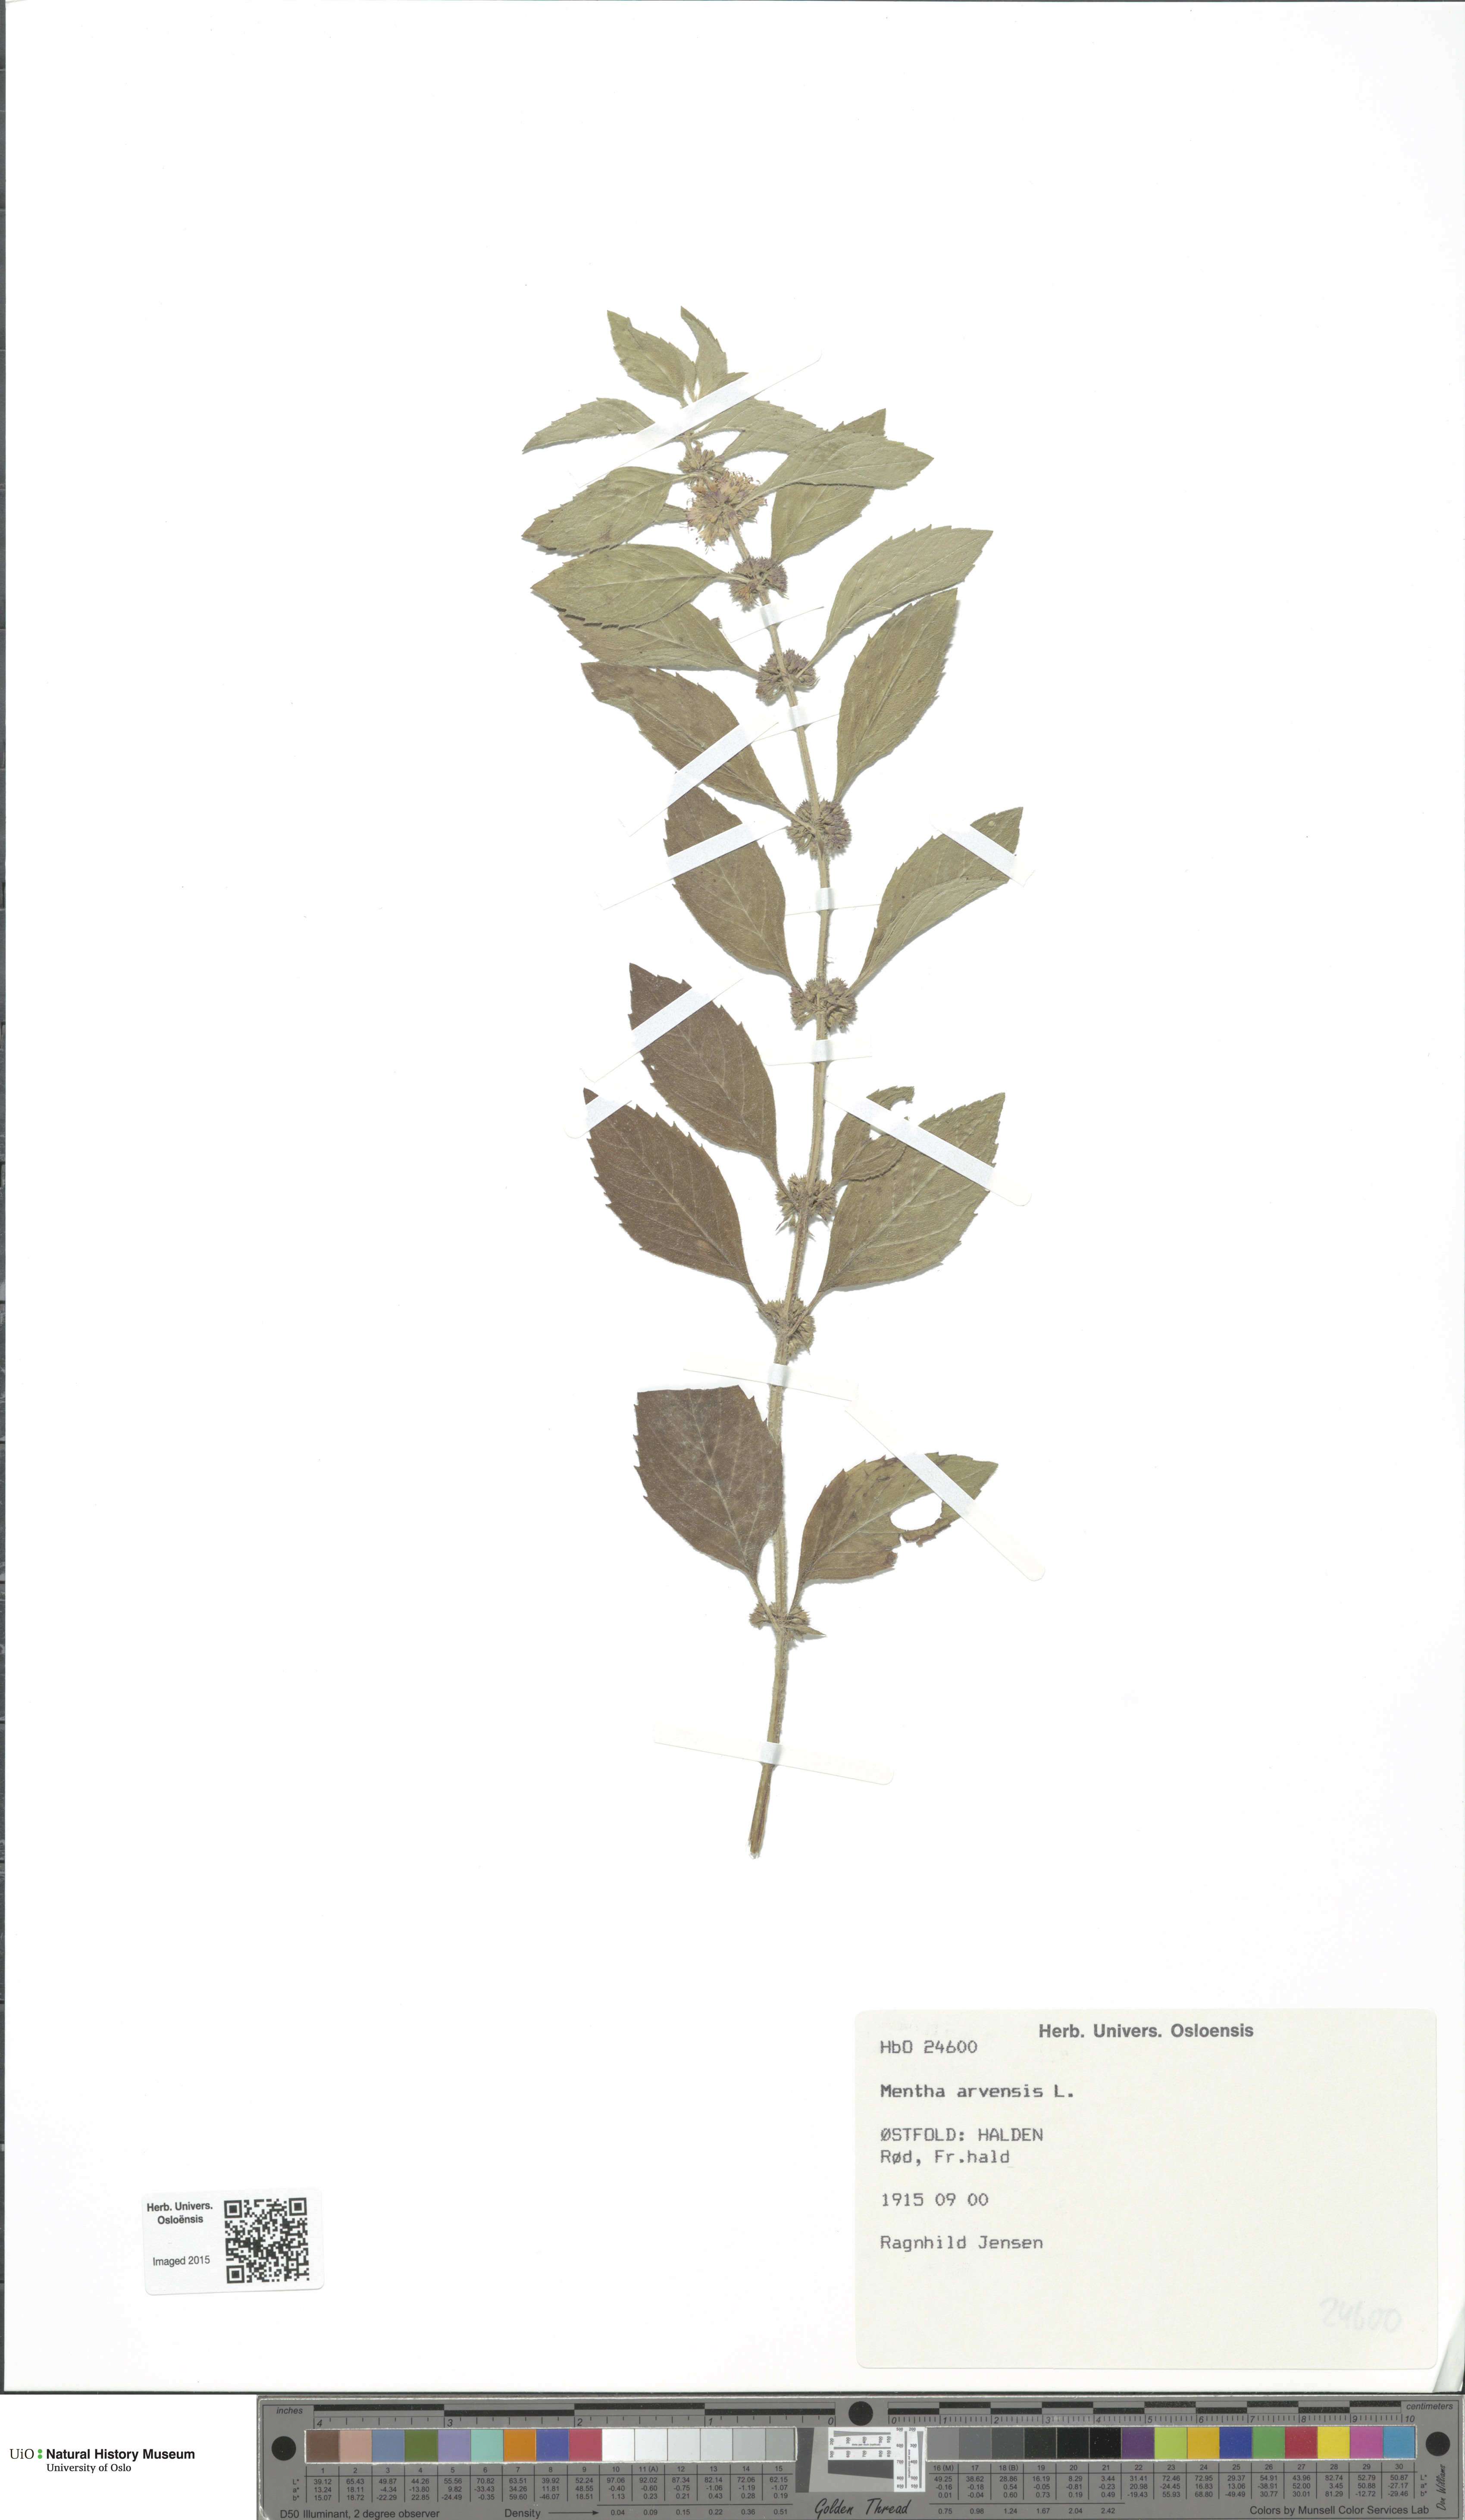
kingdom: Plantae
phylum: Tracheophyta
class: Magnoliopsida
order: Lamiales
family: Lamiaceae
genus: Mentha
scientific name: Mentha arvensis
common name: Corn mint
